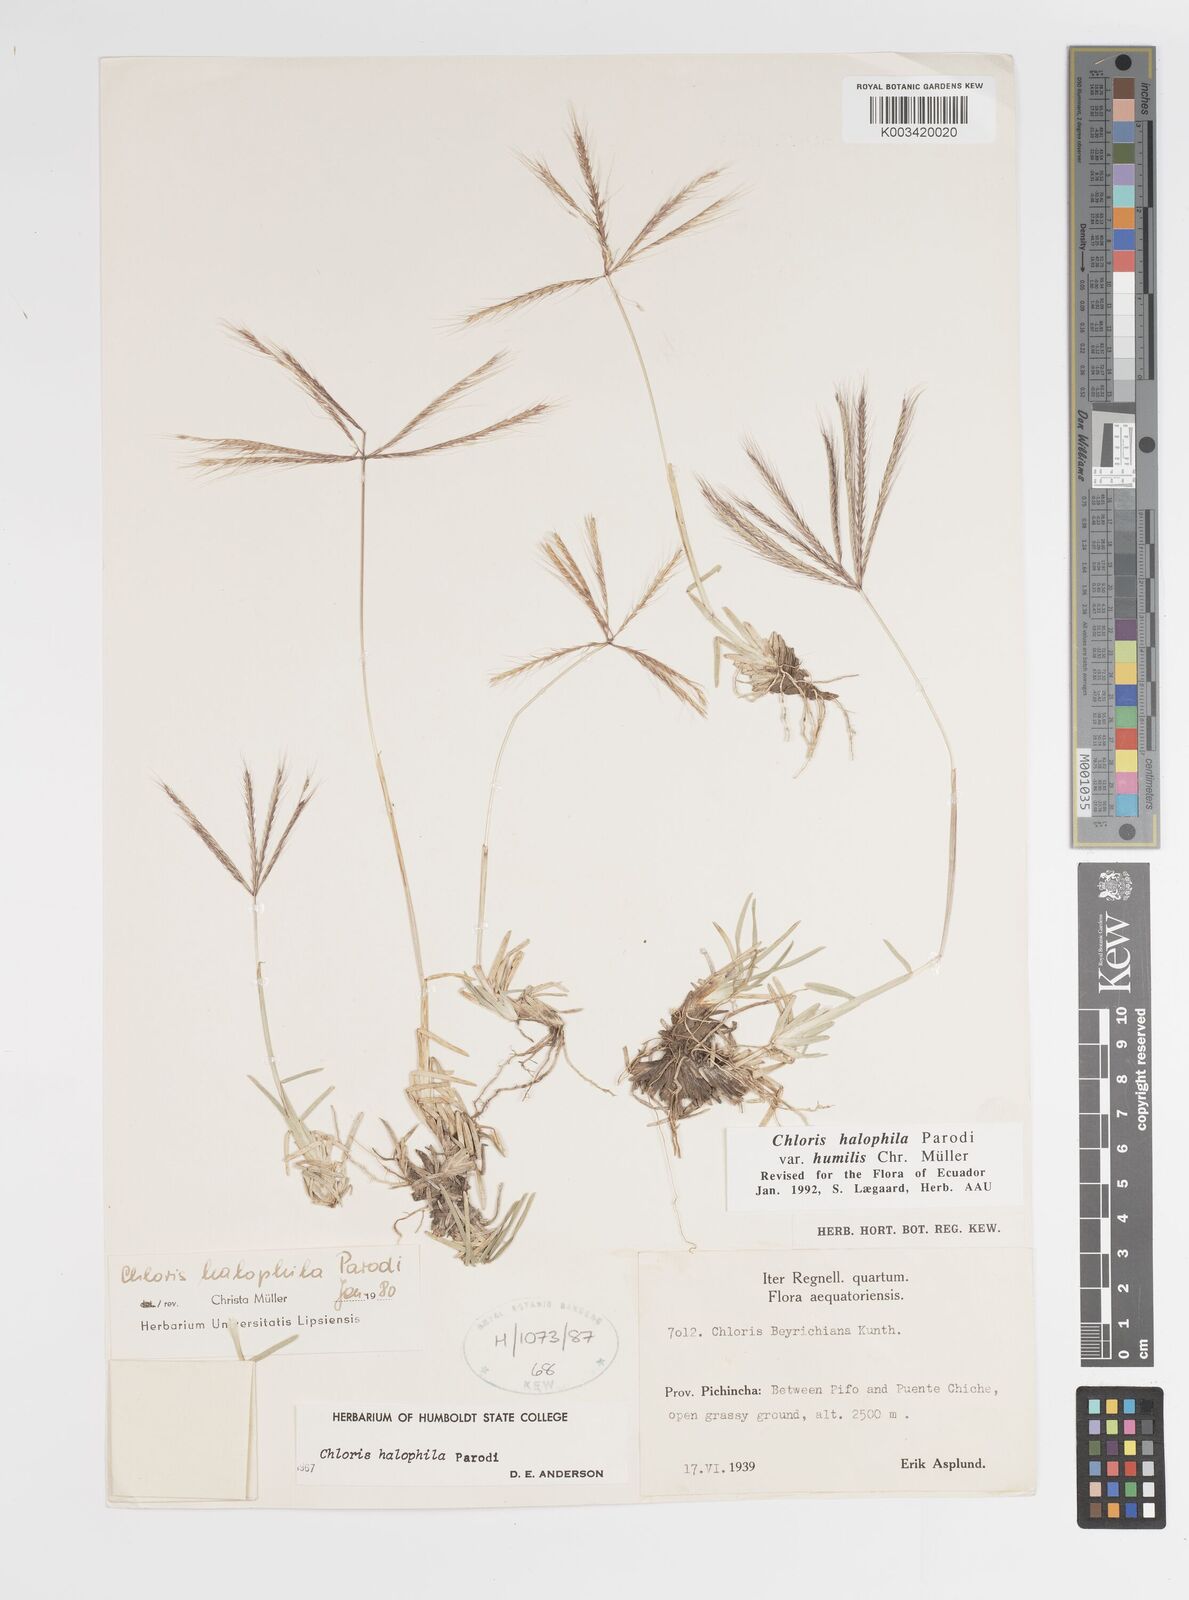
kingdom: Plantae
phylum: Tracheophyta
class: Liliopsida
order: Poales
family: Poaceae
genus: Chloris
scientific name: Chloris halophila
